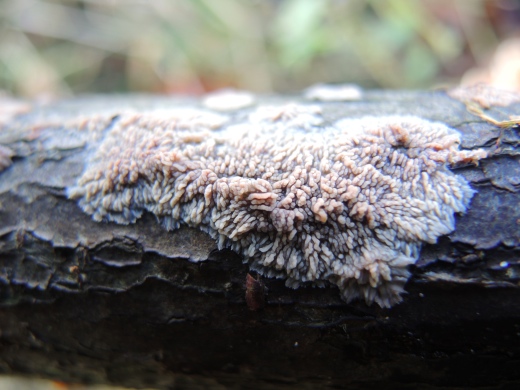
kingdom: Fungi
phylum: Basidiomycota
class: Agaricomycetes
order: Polyporales
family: Meruliaceae
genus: Phlebia
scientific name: Phlebia radiata
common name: stråle-åresvamp
